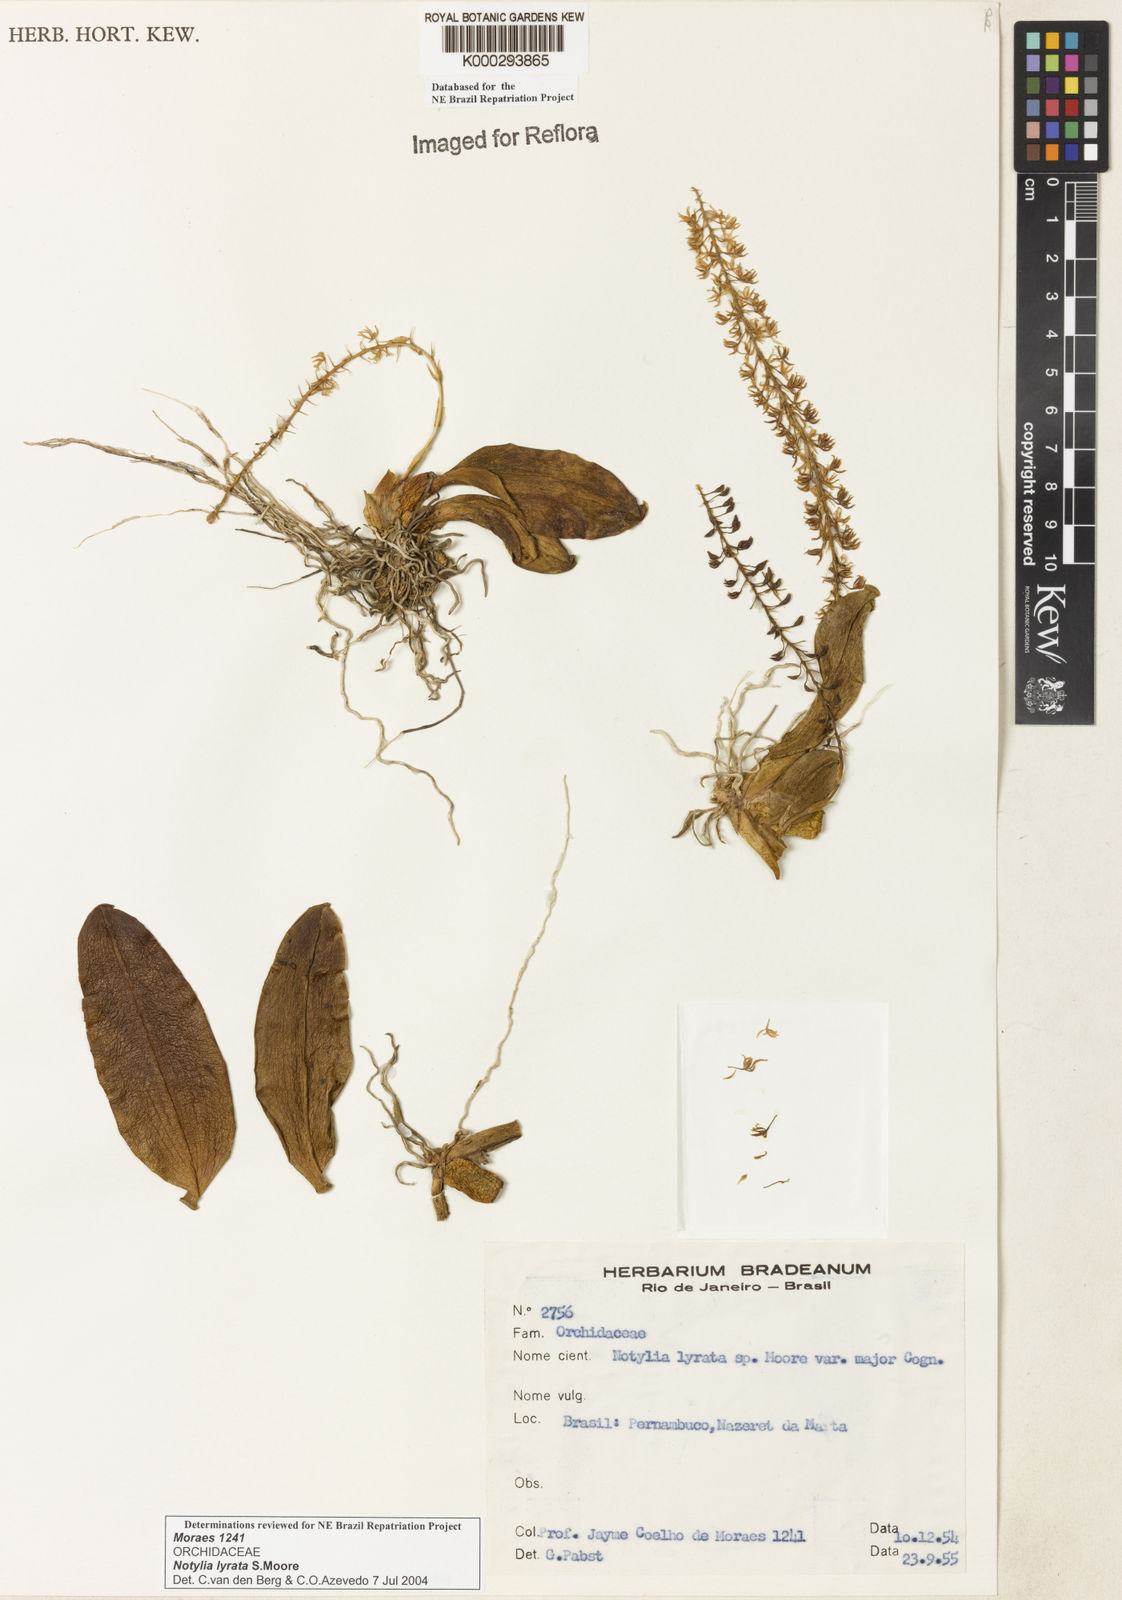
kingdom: Plantae
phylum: Tracheophyta
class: Liliopsida
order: Asparagales
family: Orchidaceae
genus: Notylia
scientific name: Notylia lyrata
